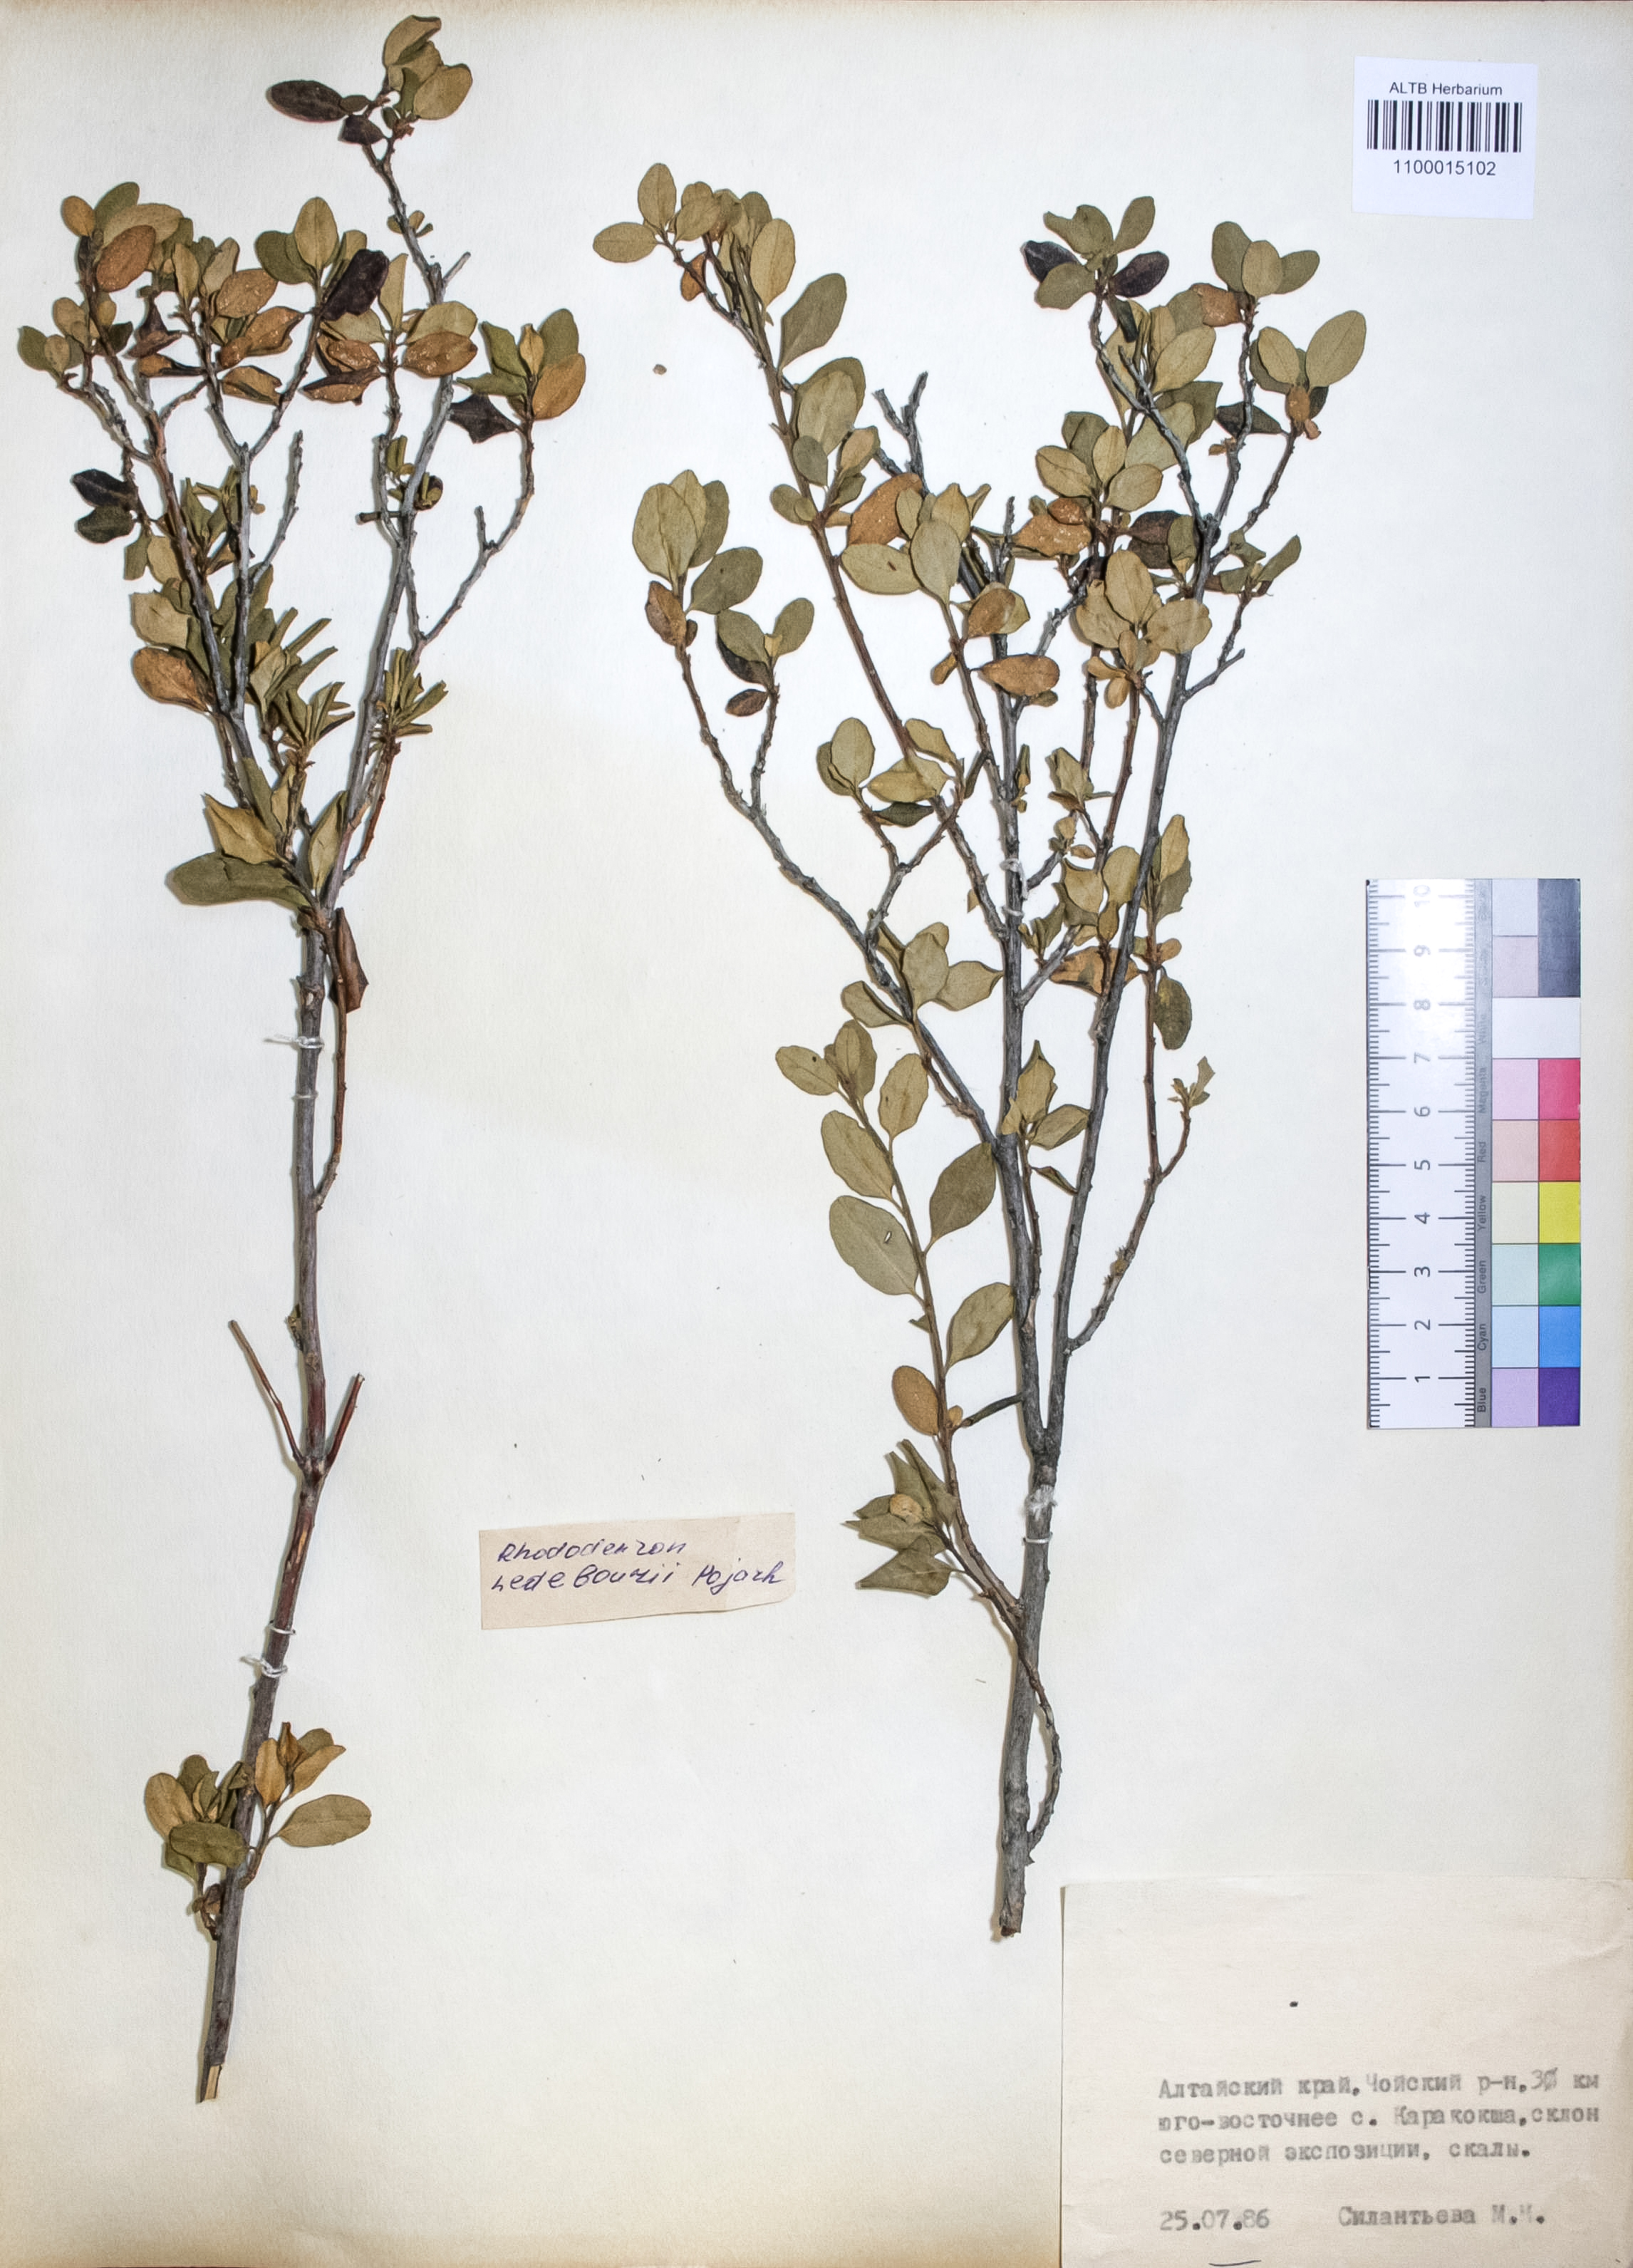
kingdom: Plantae
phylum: Tracheophyta
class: Magnoliopsida
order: Ericales
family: Ericaceae
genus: Rhododendron
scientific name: Rhododendron dauricum
